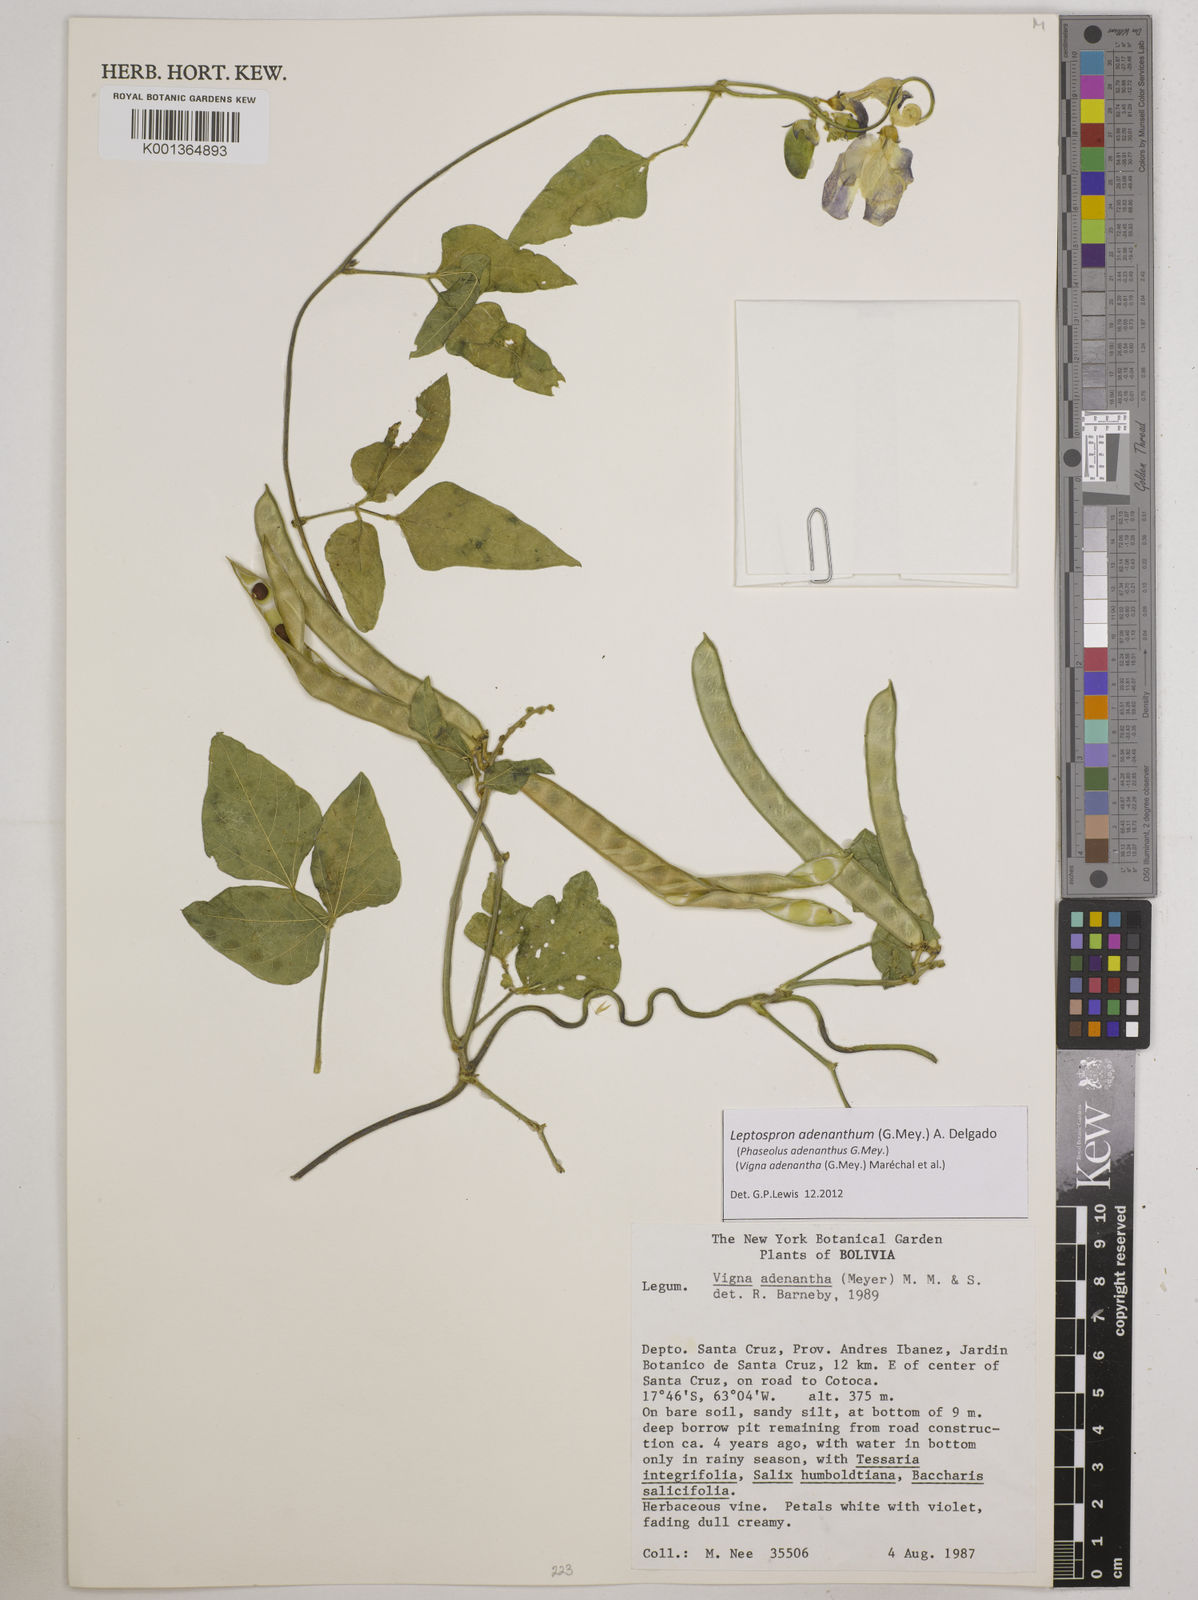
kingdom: Plantae
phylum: Tracheophyta
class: Magnoliopsida
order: Fabales
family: Fabaceae
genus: Leptospron
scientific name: Leptospron adenanthum
